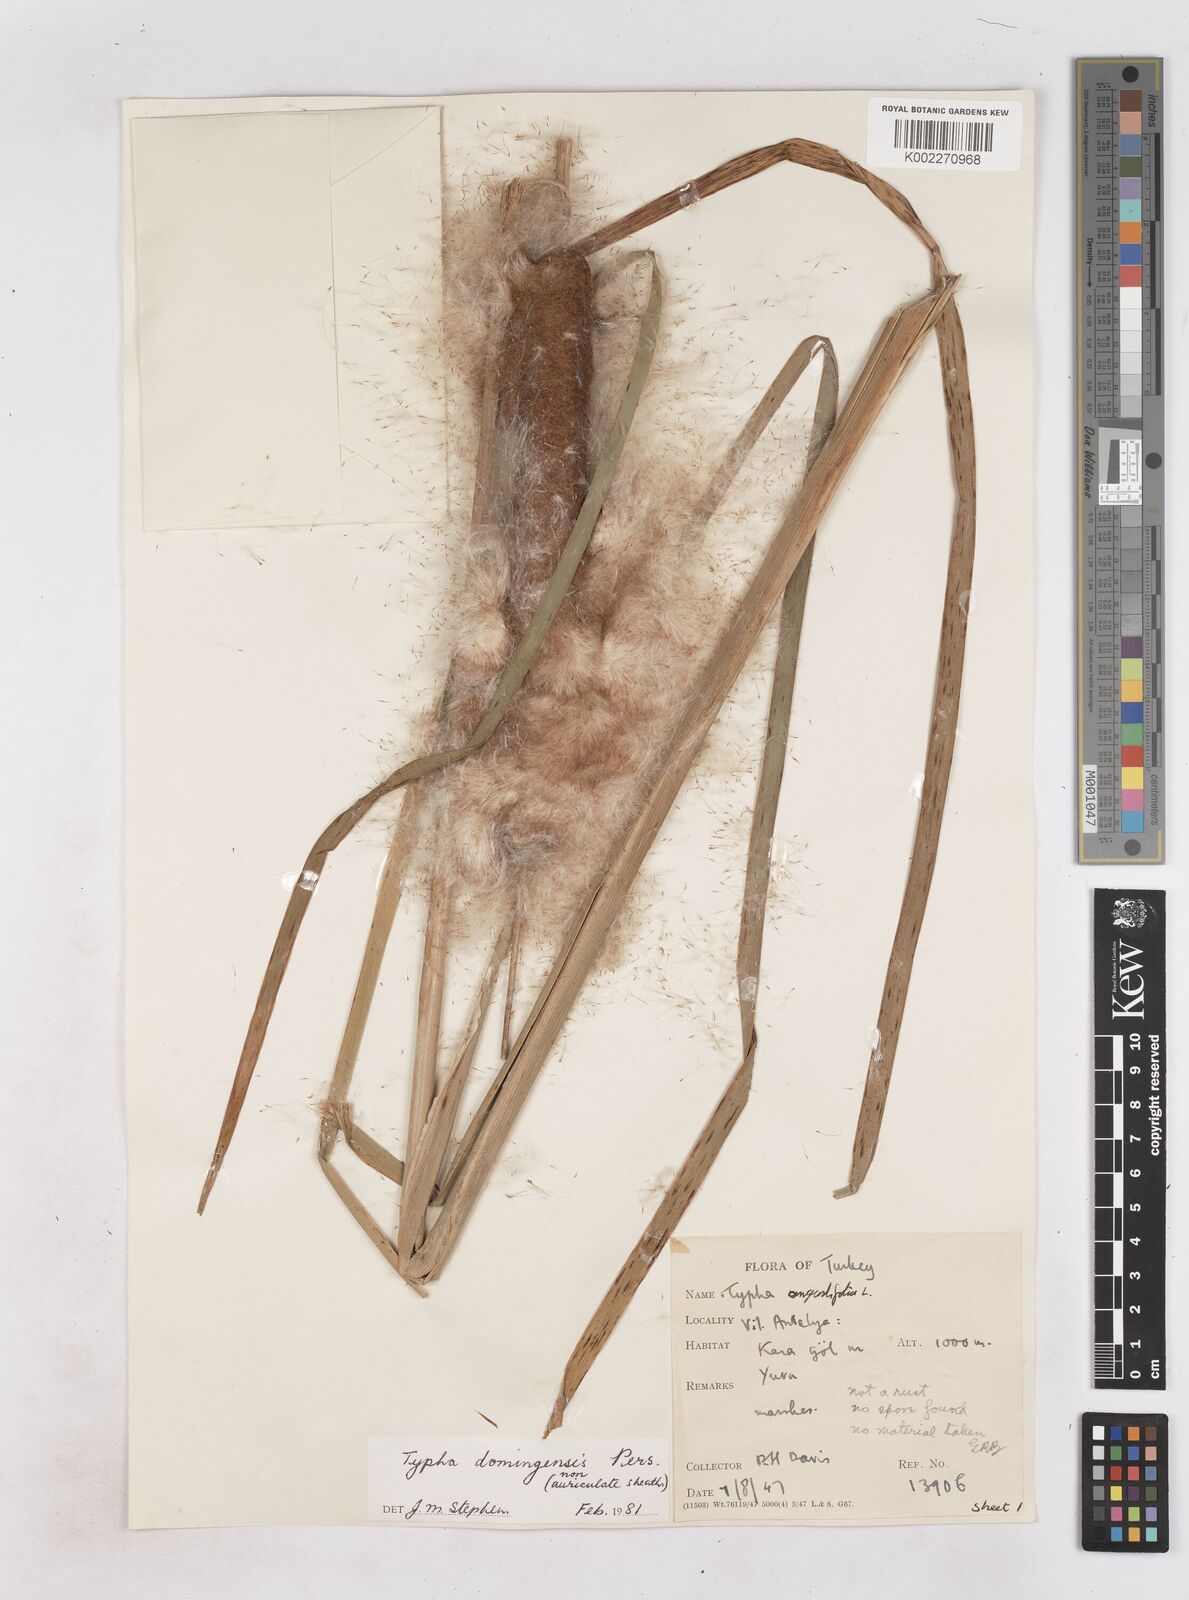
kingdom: Plantae
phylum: Tracheophyta
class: Liliopsida
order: Poales
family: Typhaceae
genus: Typha
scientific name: Typha domingensis
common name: Southern cattail
